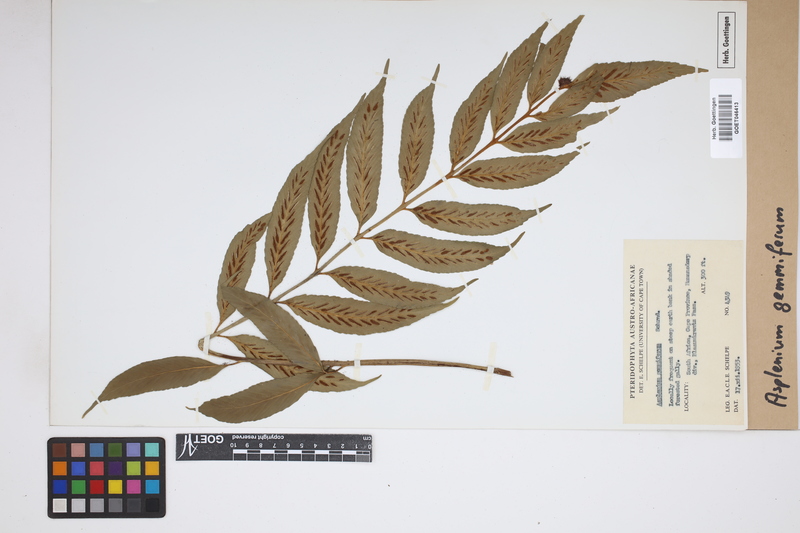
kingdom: Plantae
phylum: Tracheophyta
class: Polypodiopsida
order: Polypodiales
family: Aspleniaceae
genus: Asplenium
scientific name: Asplenium gemmiferum
